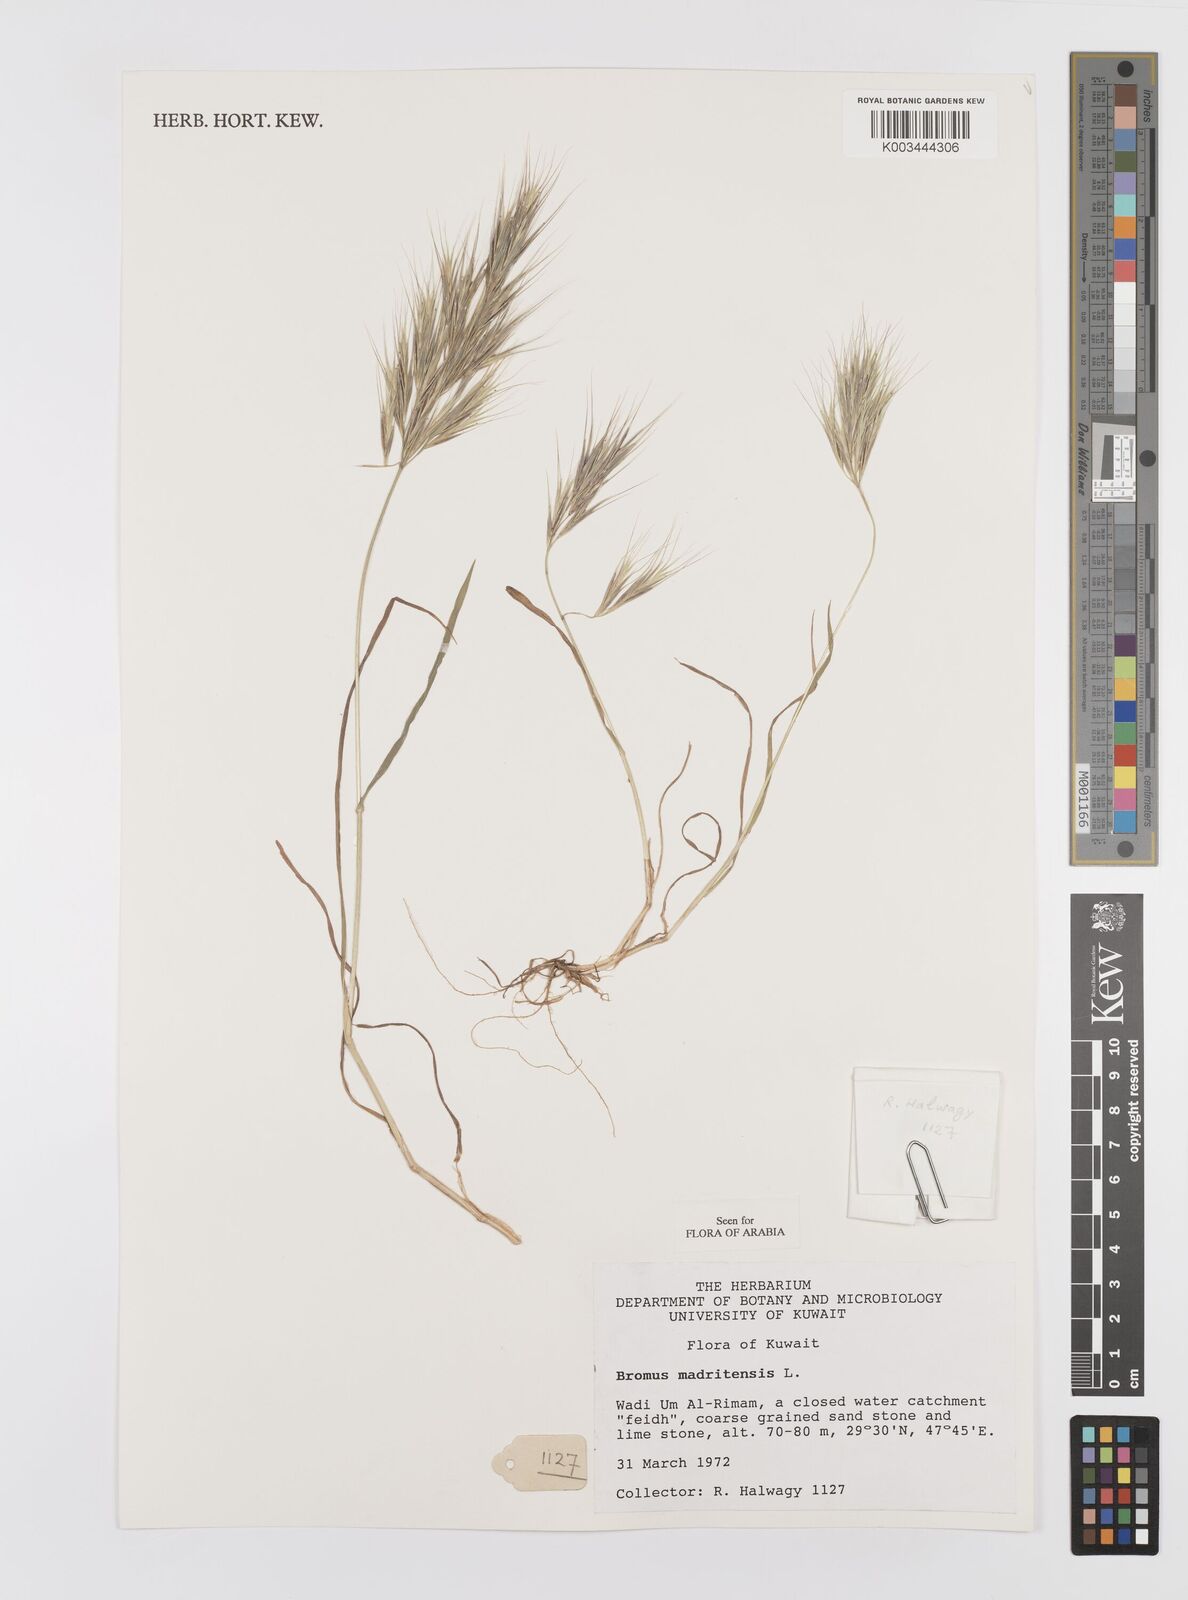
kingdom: Plantae
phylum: Tracheophyta
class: Liliopsida
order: Poales
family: Poaceae
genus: Bromus
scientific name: Bromus madritensis
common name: Compact brome
